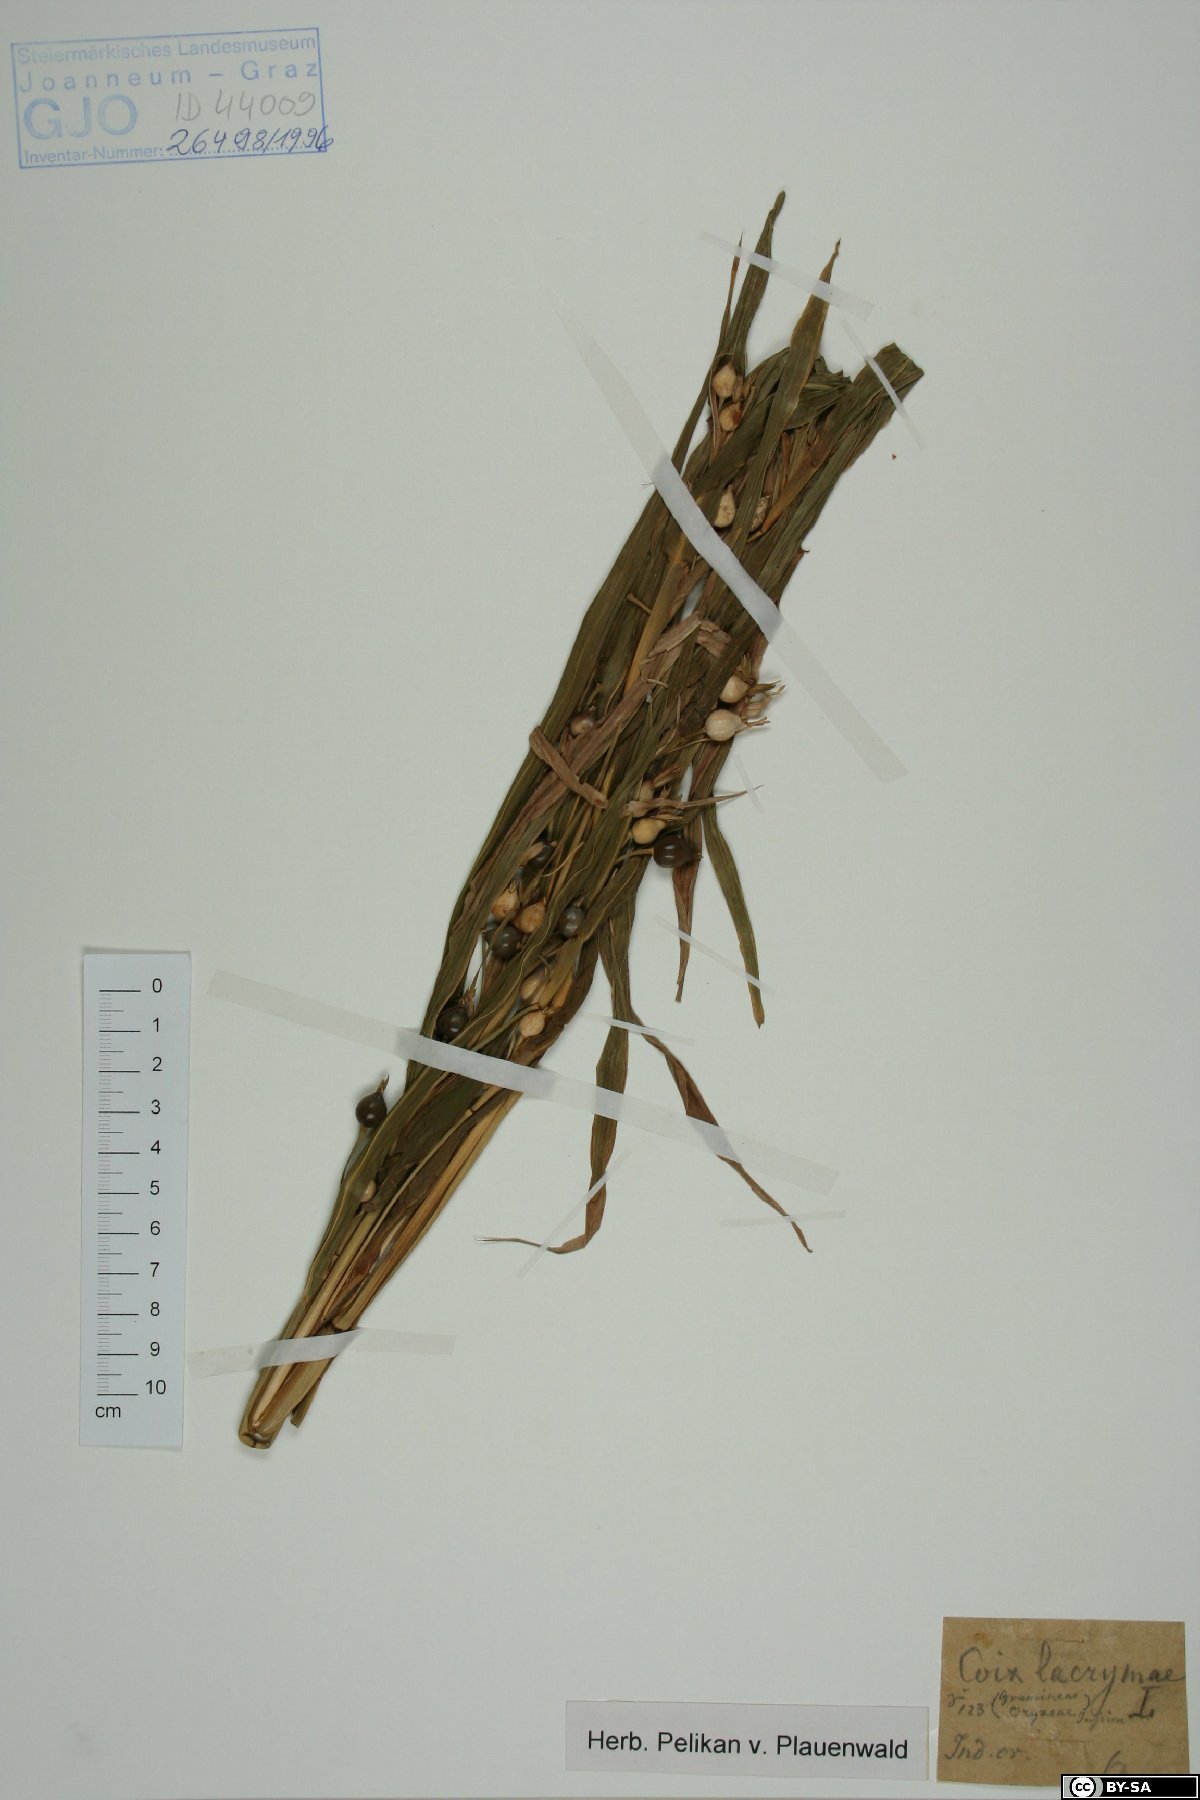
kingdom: Plantae
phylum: Tracheophyta
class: Liliopsida
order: Poales
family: Poaceae
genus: Coix
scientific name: Coix lacryma-jobi
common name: Job's tears
